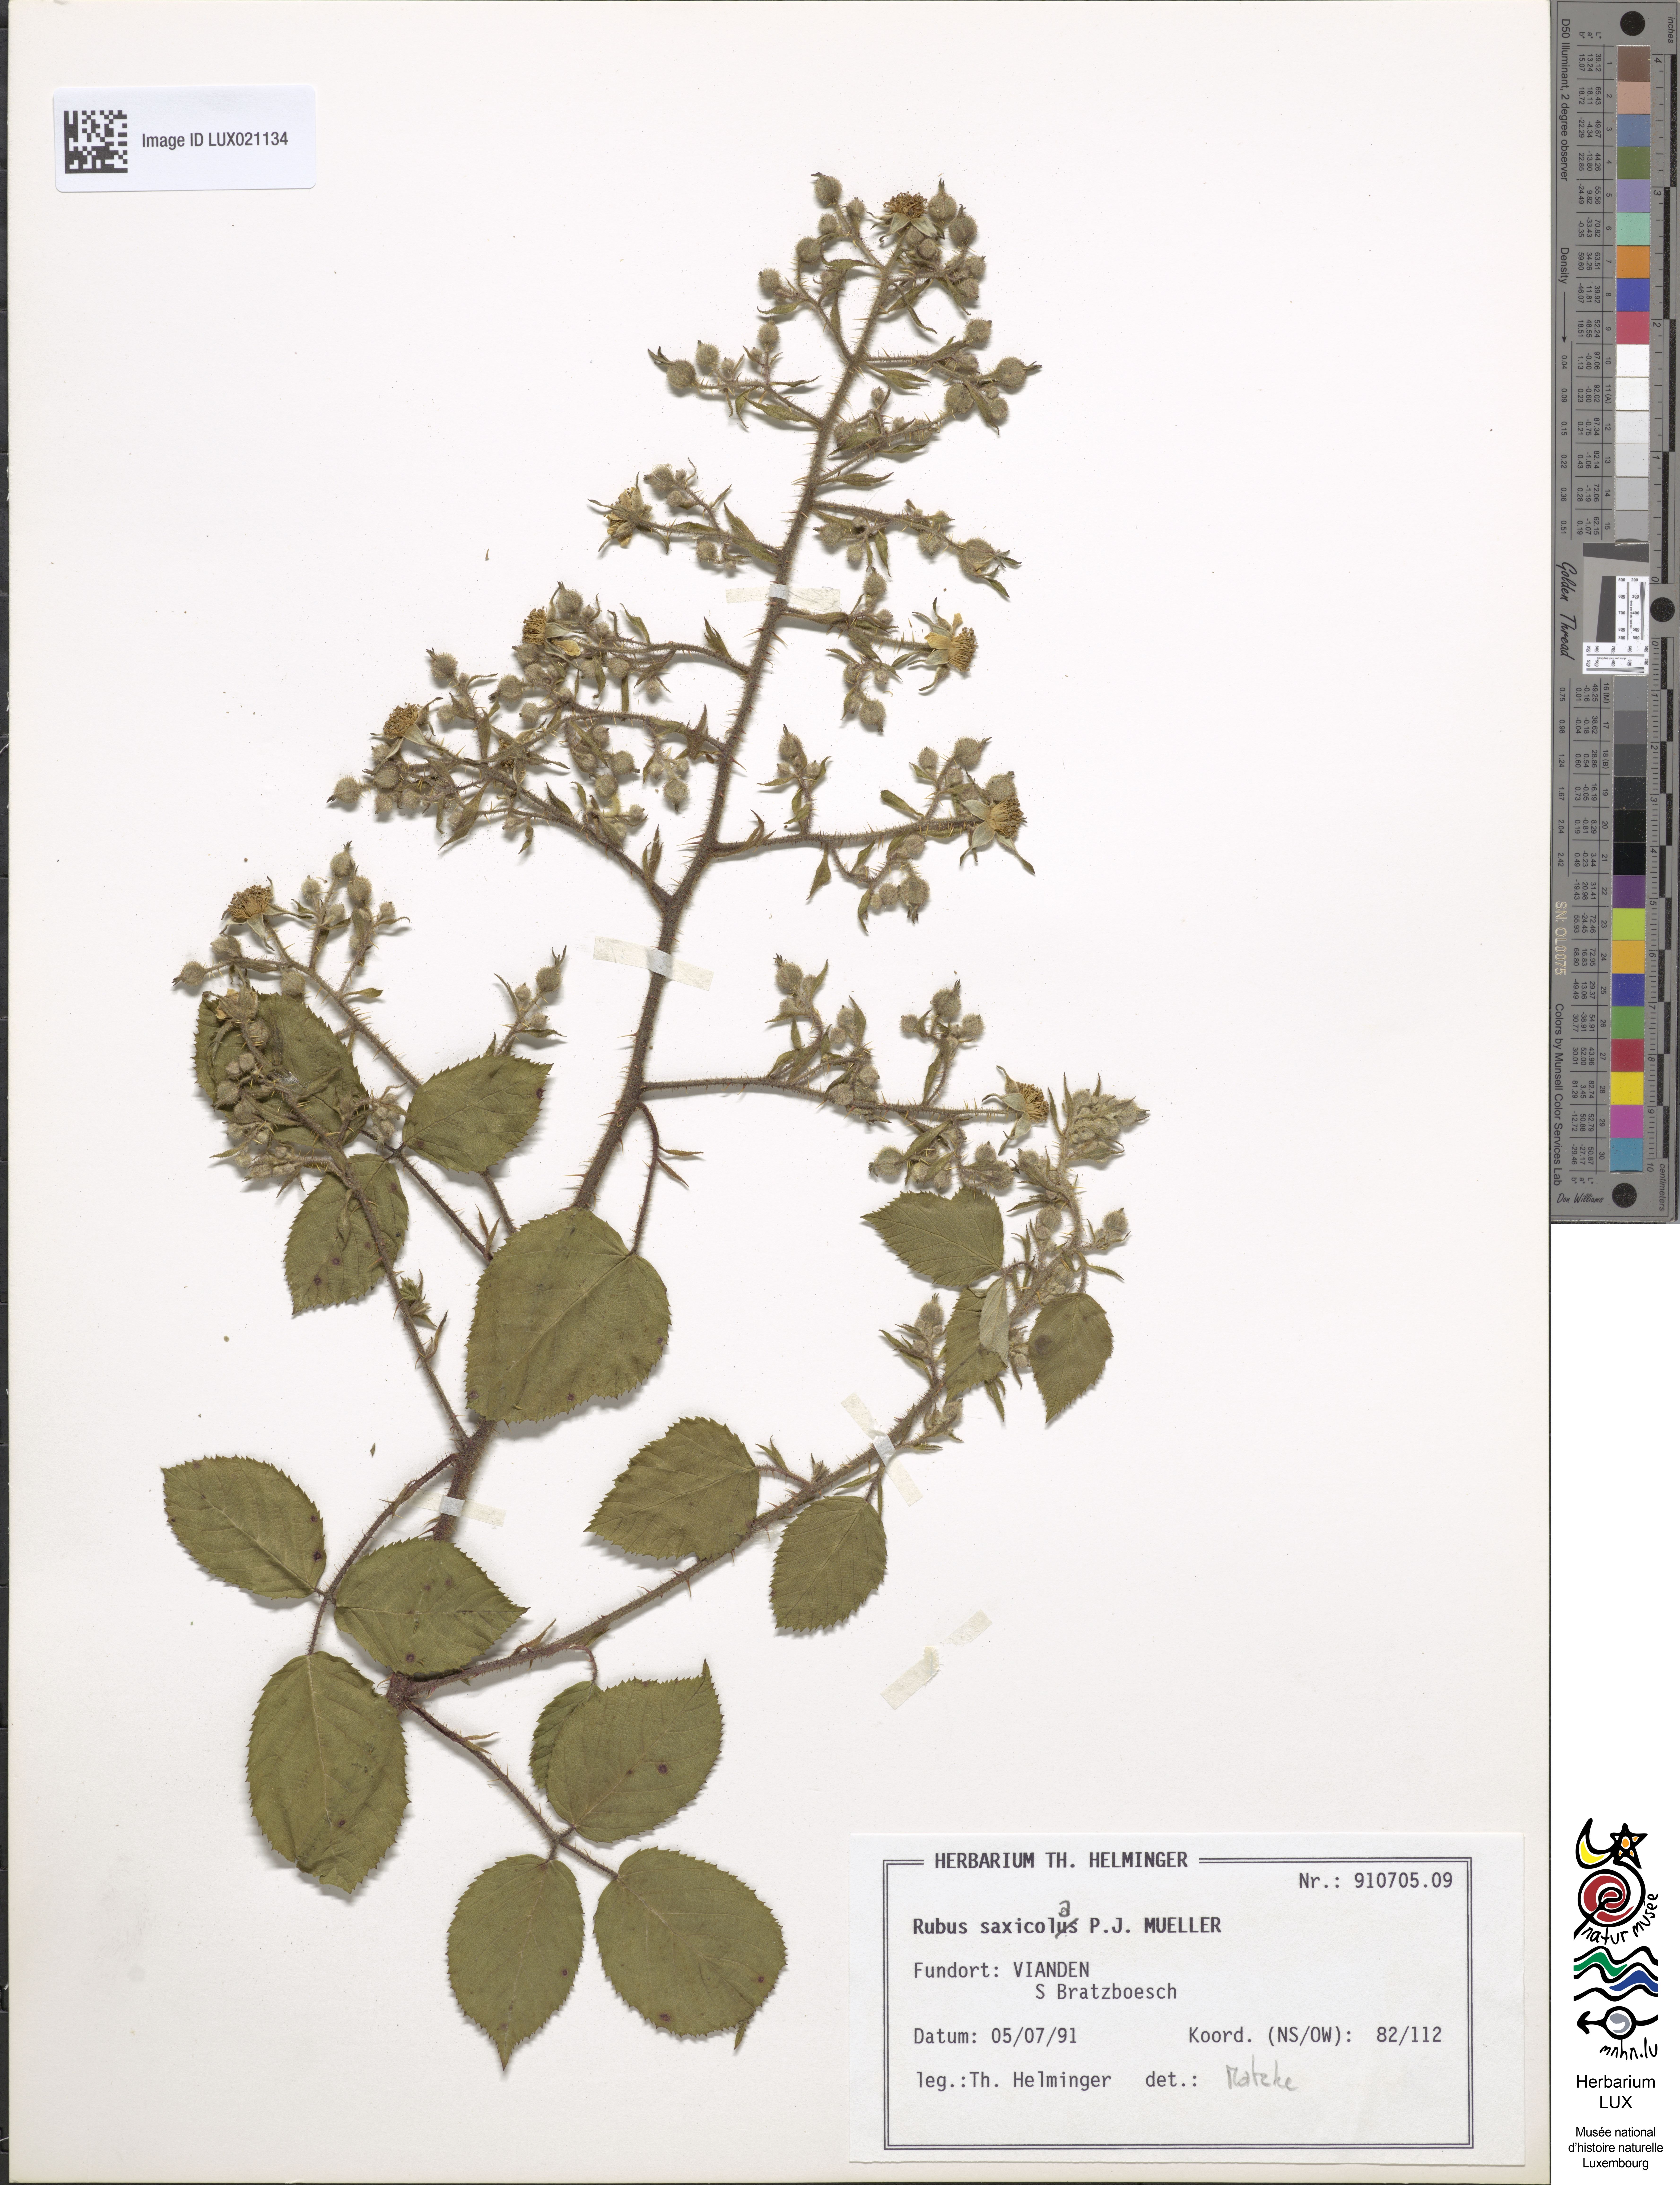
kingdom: Plantae
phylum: Tracheophyta
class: Magnoliopsida
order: Rosales
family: Rosaceae
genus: Rubus
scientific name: Rubus saxicola
